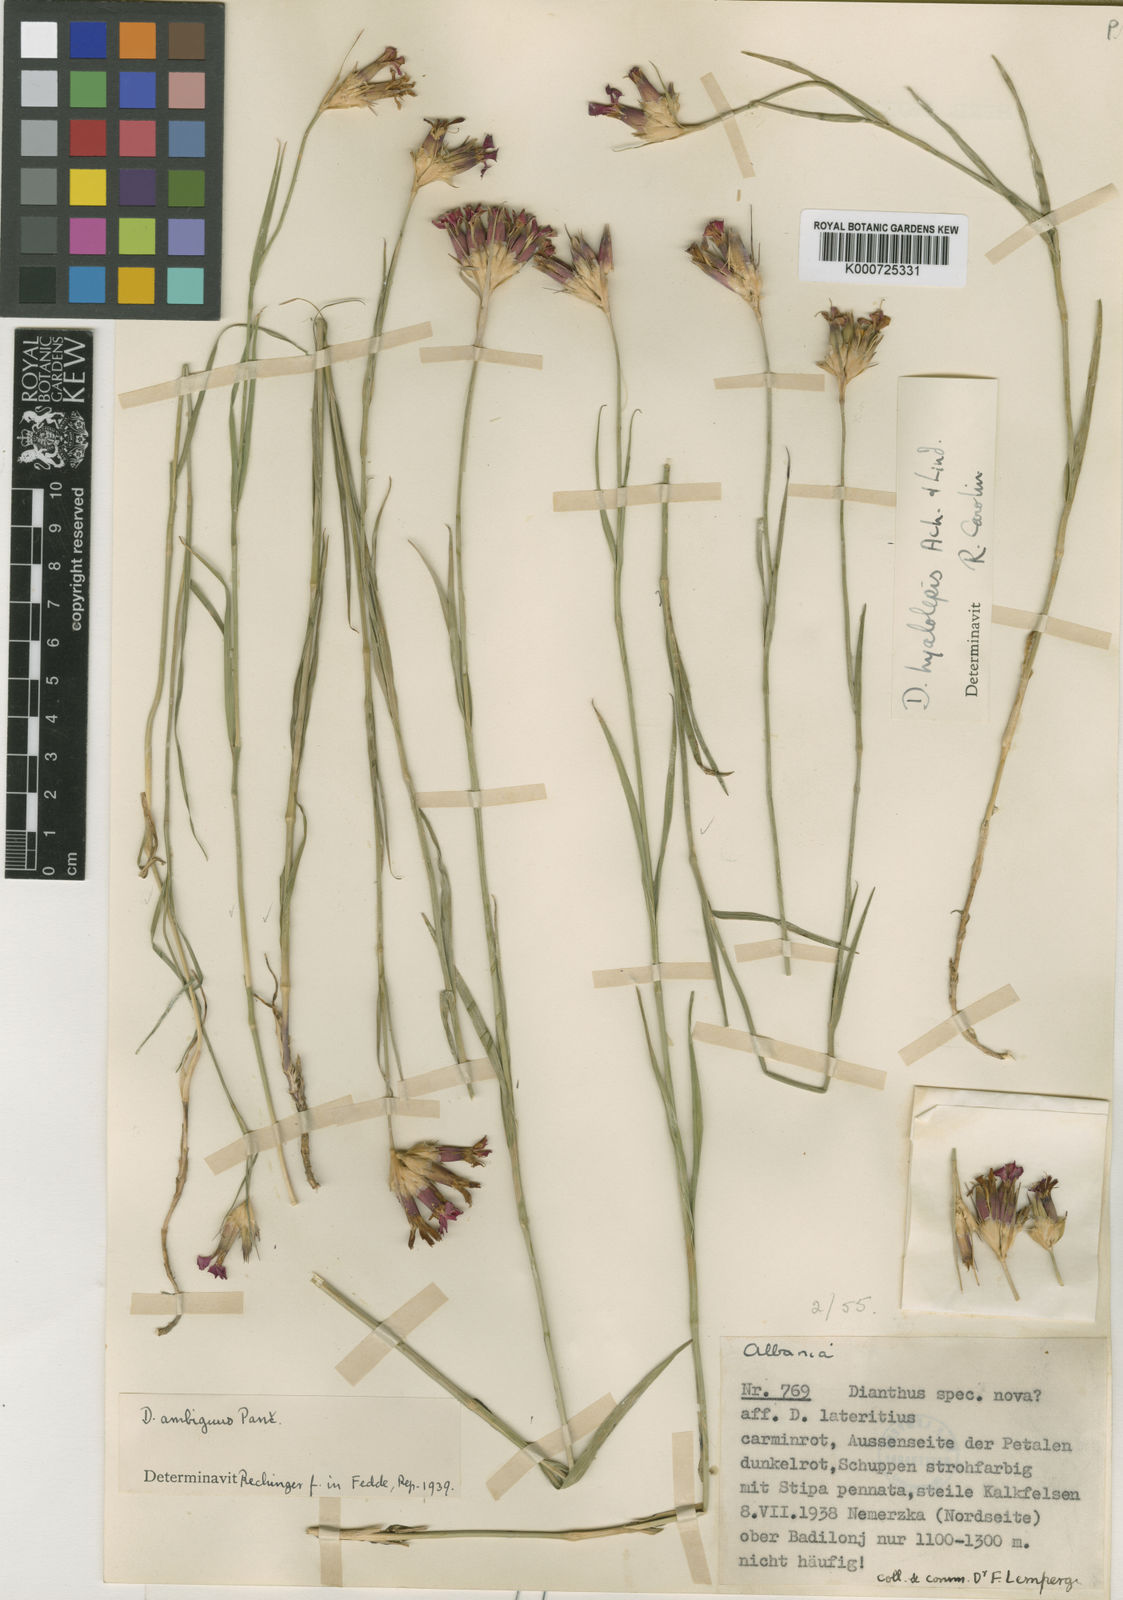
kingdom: Plantae
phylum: Tracheophyta
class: Magnoliopsida
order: Caryophyllales
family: Caryophyllaceae
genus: Dianthus
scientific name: Dianthus cruentus
